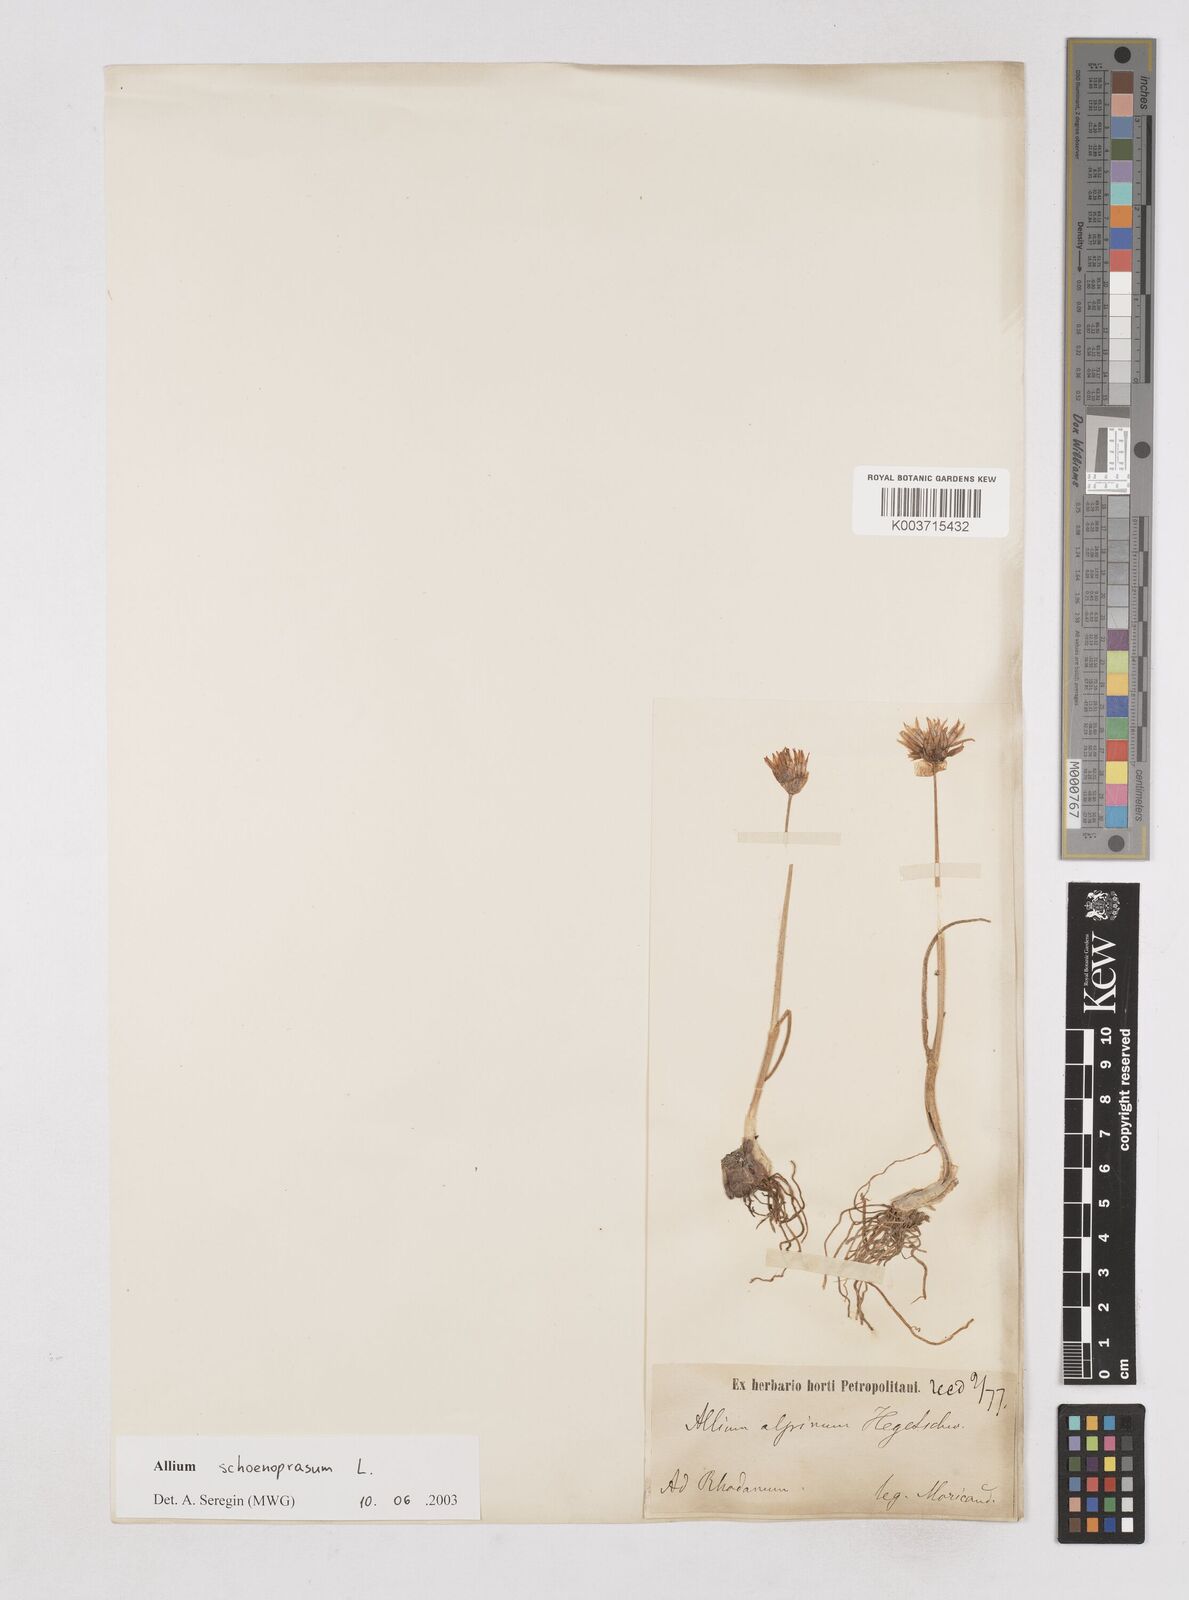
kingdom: Plantae
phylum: Tracheophyta
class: Liliopsida
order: Asparagales
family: Amaryllidaceae
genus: Allium
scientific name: Allium schoenoprasum
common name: Chives
